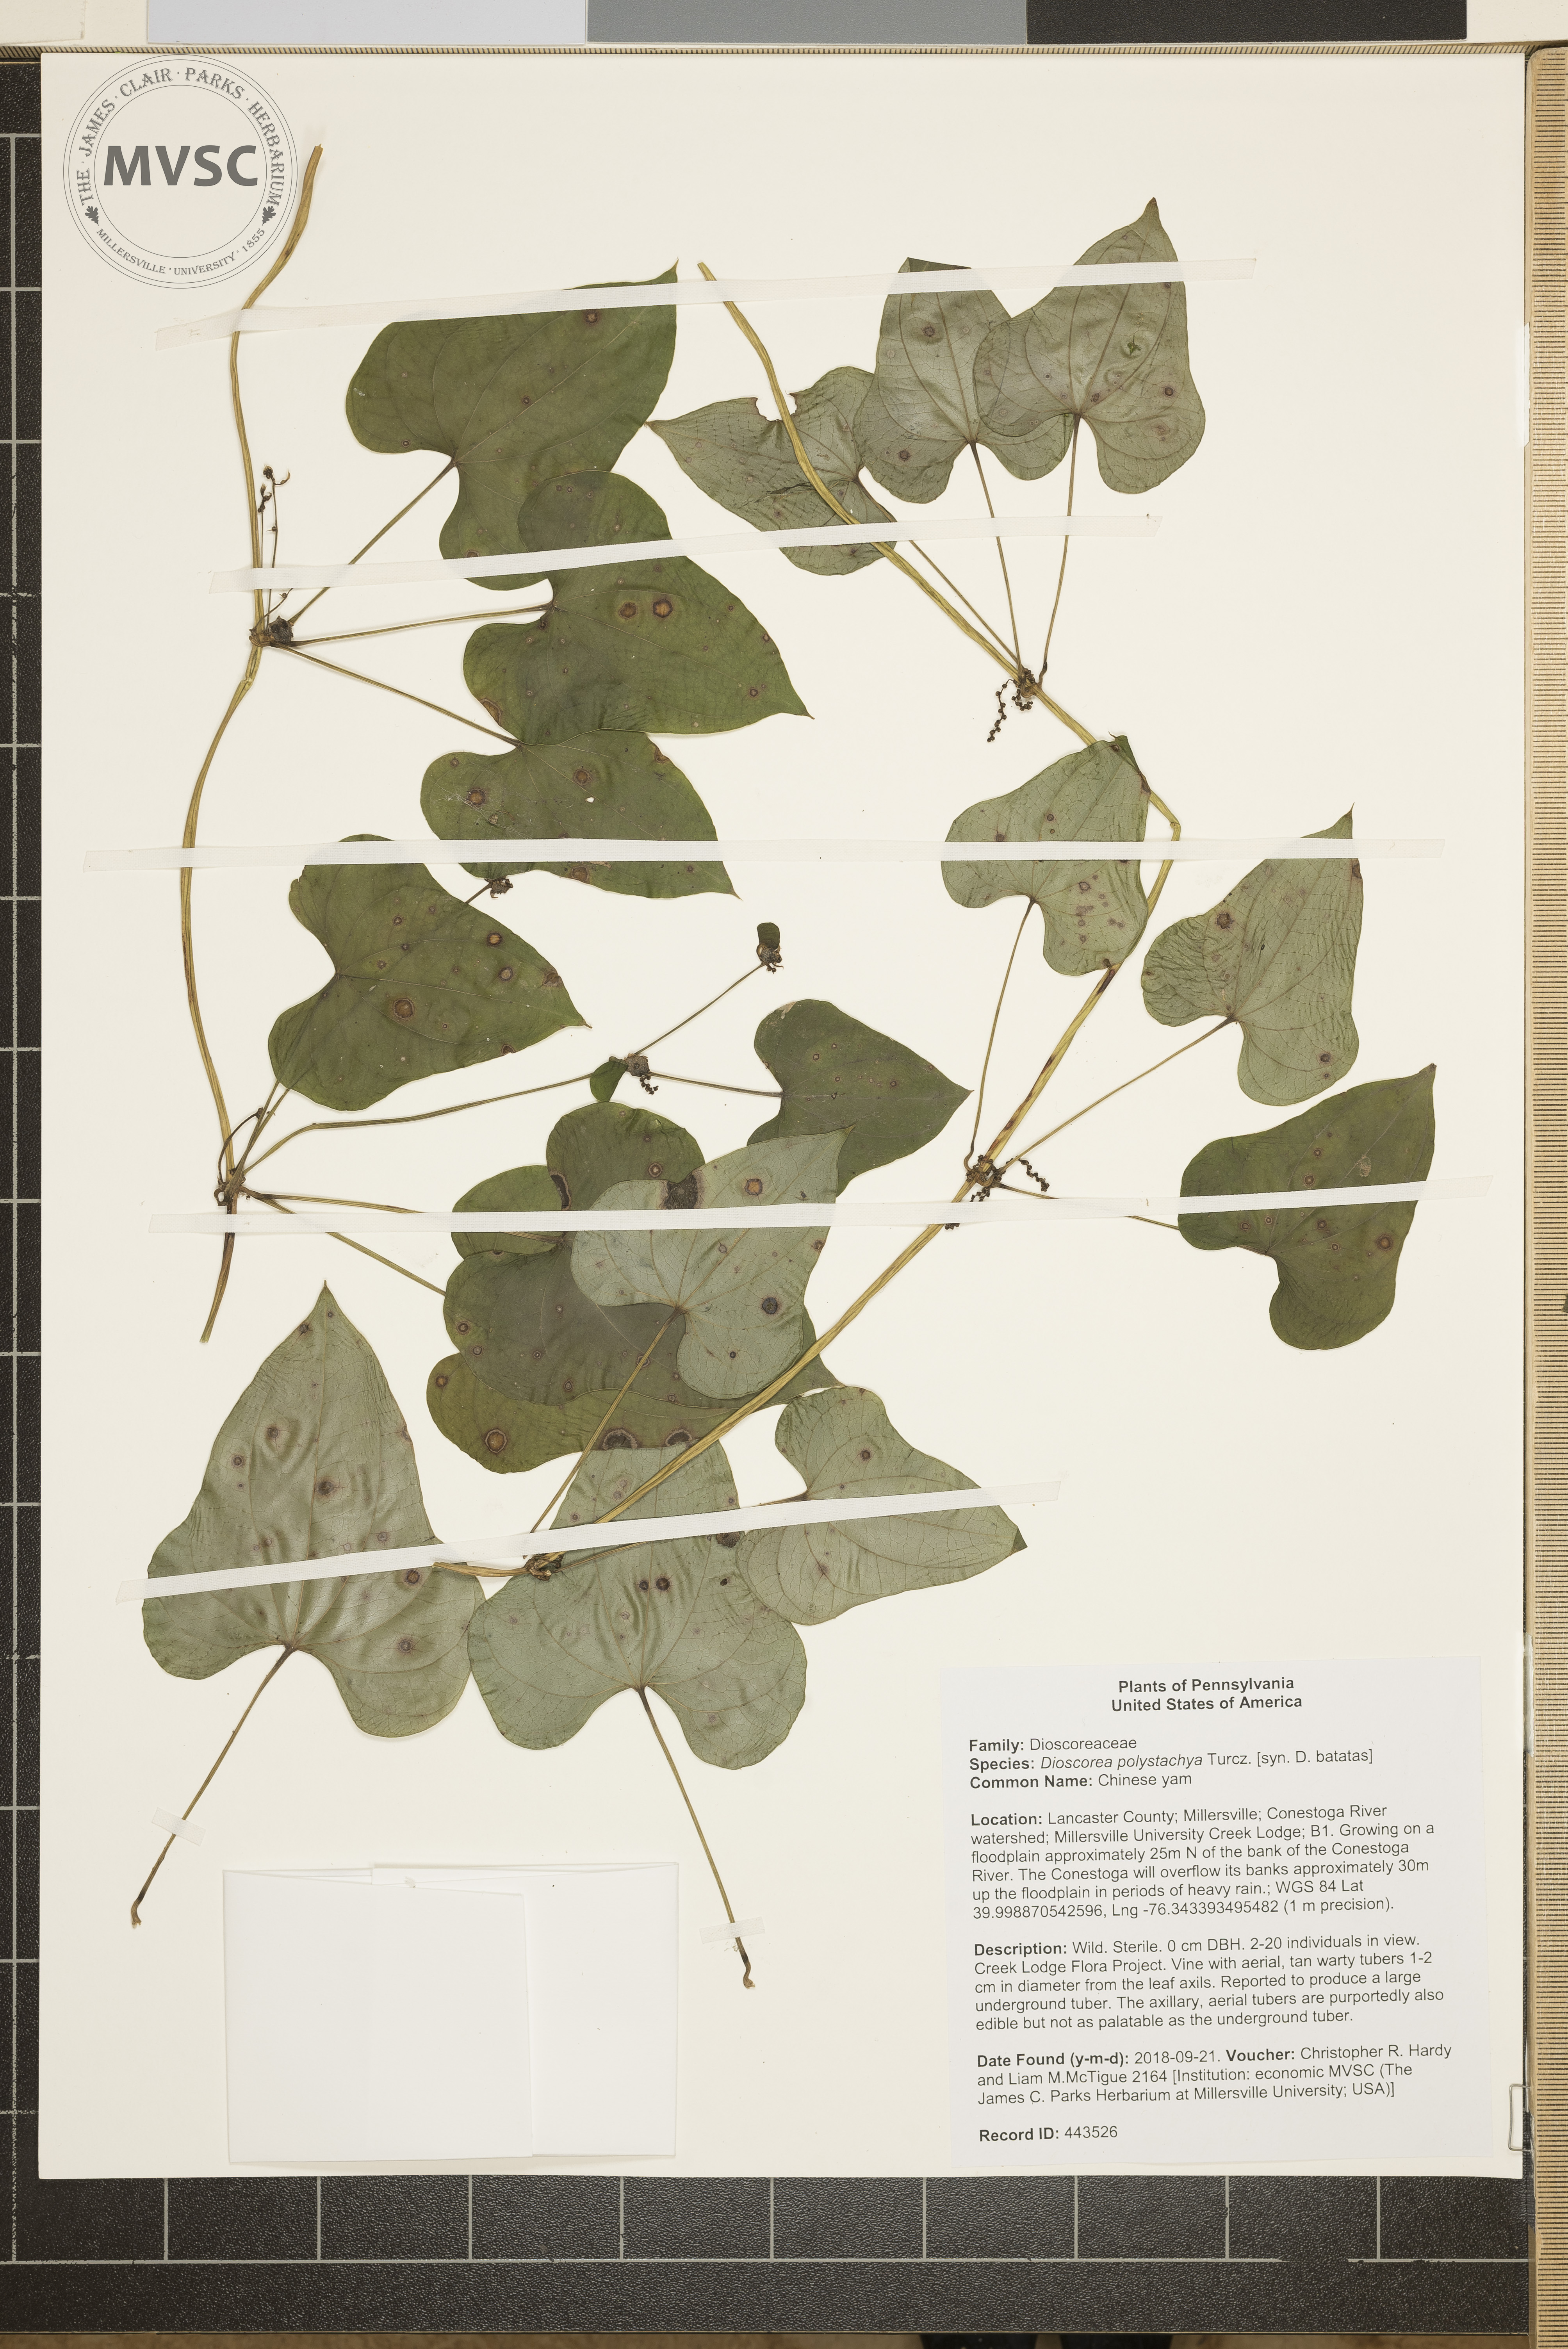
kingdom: Plantae
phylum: Tracheophyta
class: Liliopsida
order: Dioscoreales
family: Dioscoreaceae
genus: Dioscorea
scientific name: Dioscorea polystachya
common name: Chinese yam
